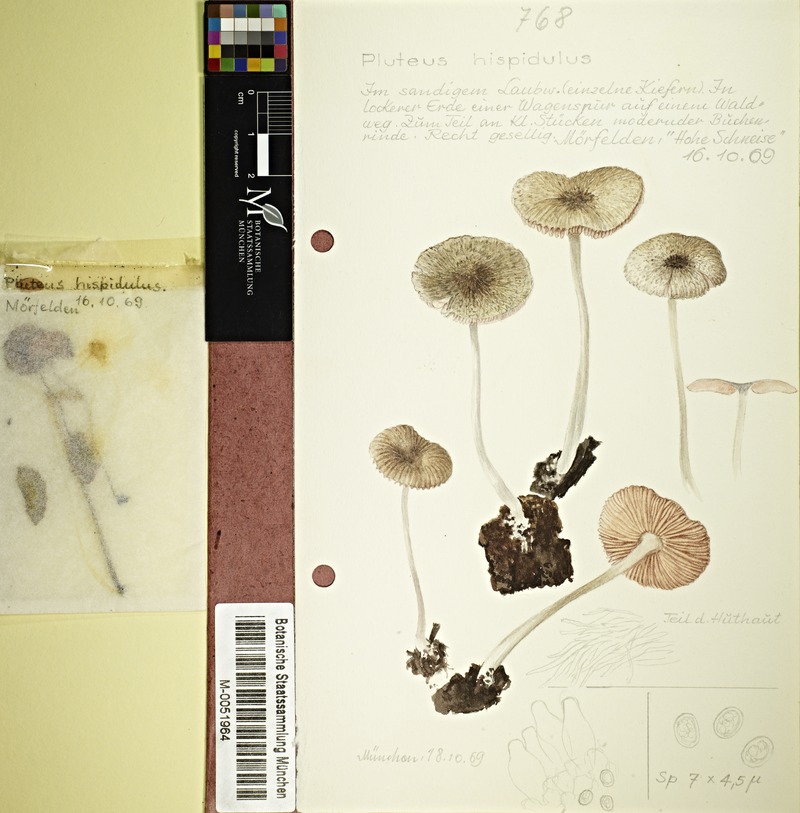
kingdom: Fungi
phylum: Basidiomycota
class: Agaricomycetes
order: Agaricales
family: Pluteaceae
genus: Pluteus
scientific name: Pluteus hispidulus
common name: Fleecy shield
